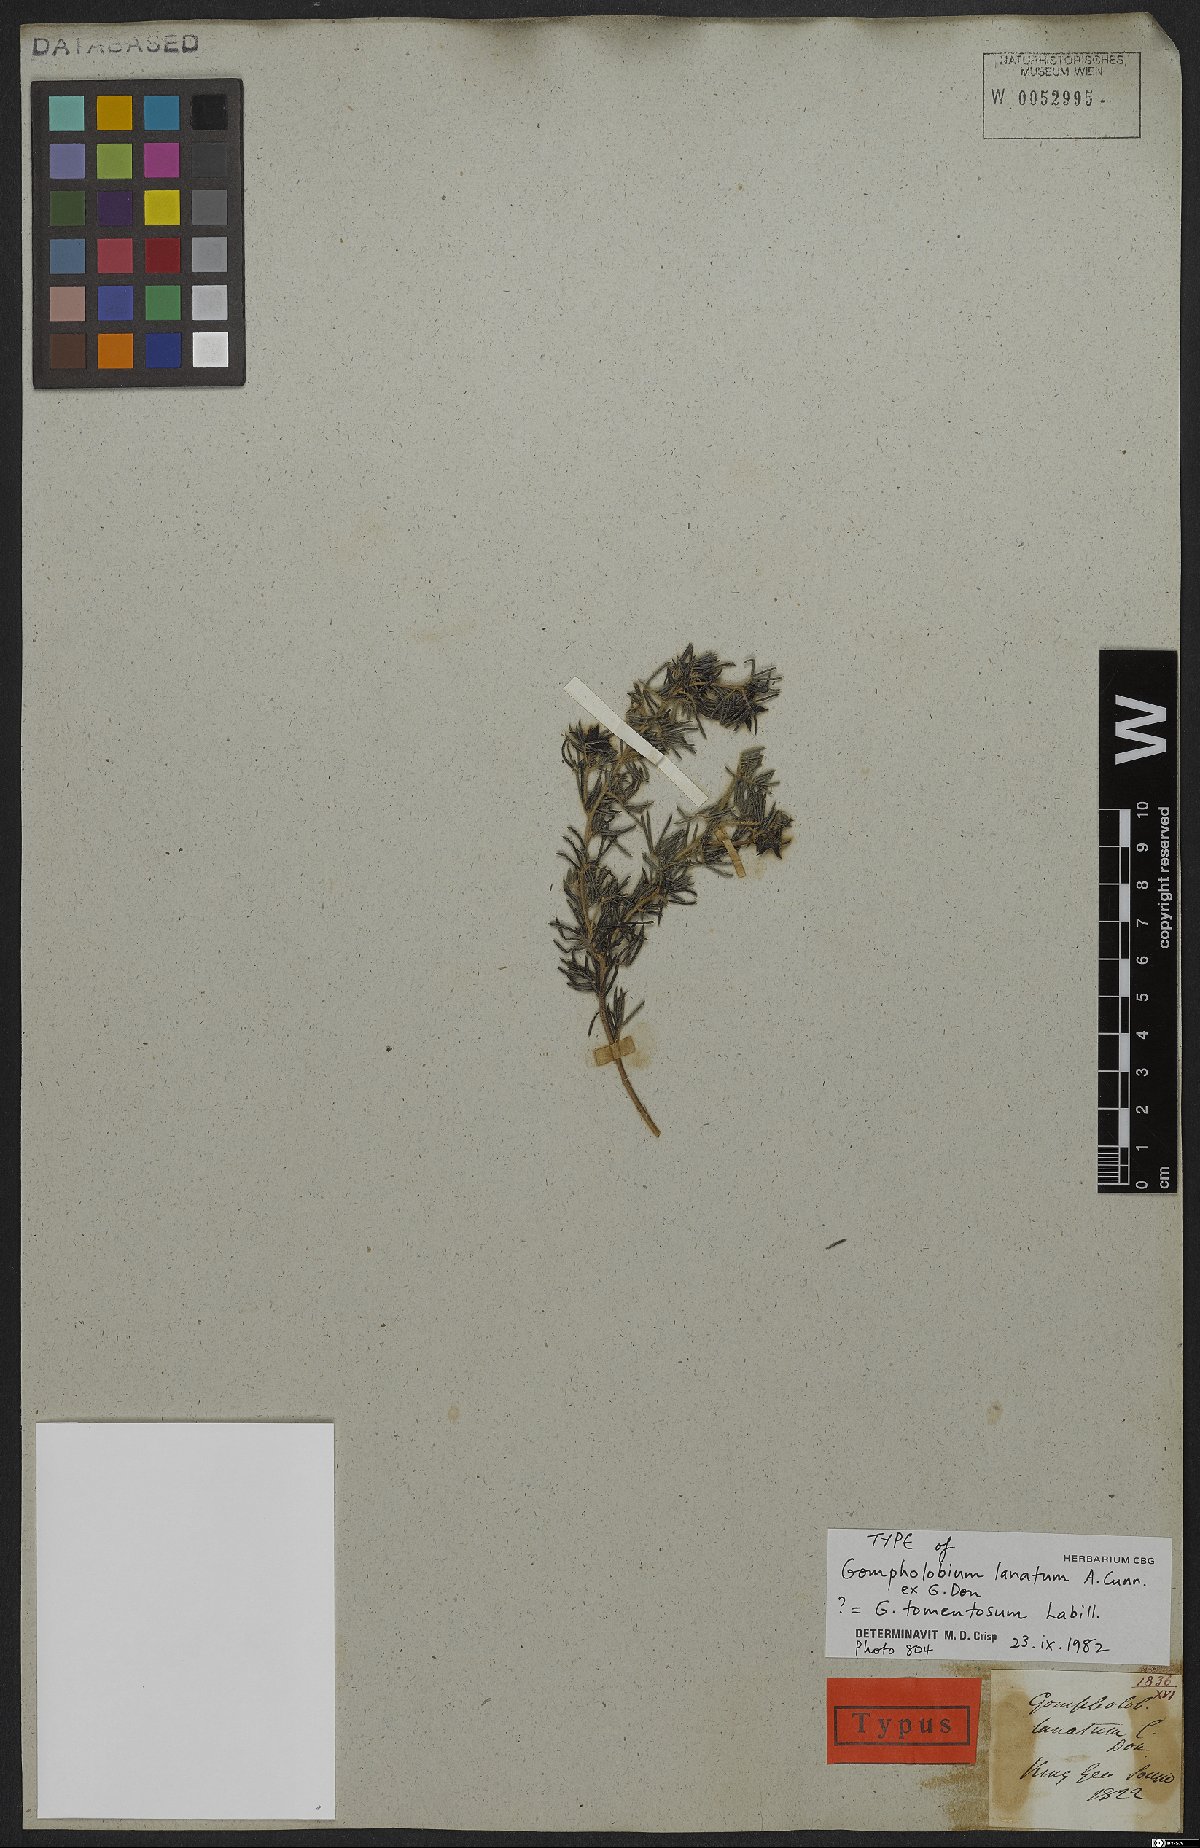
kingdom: Plantae
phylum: Tracheophyta
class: Magnoliopsida
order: Fabales
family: Fabaceae
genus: Gompholobium
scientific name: Gompholobium tomentosum
